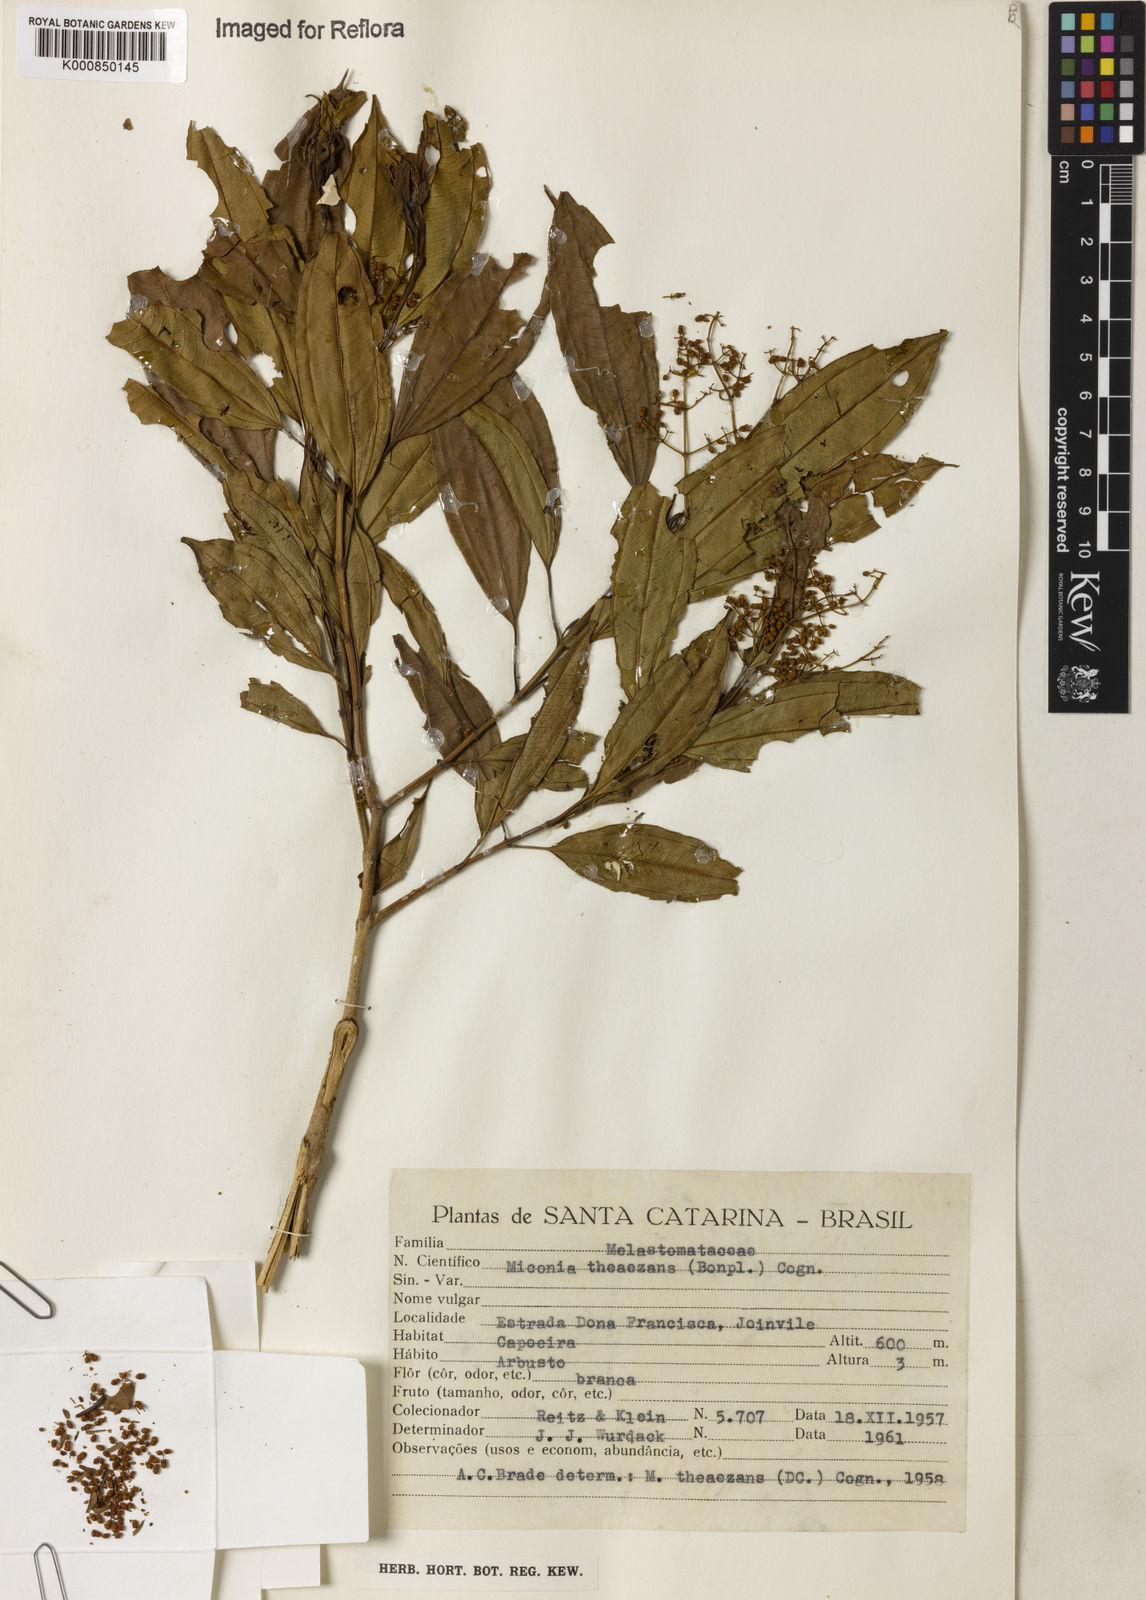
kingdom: Plantae
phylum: Tracheophyta
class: Magnoliopsida
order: Myrtales
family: Melastomataceae
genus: Miconia
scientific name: Miconia
